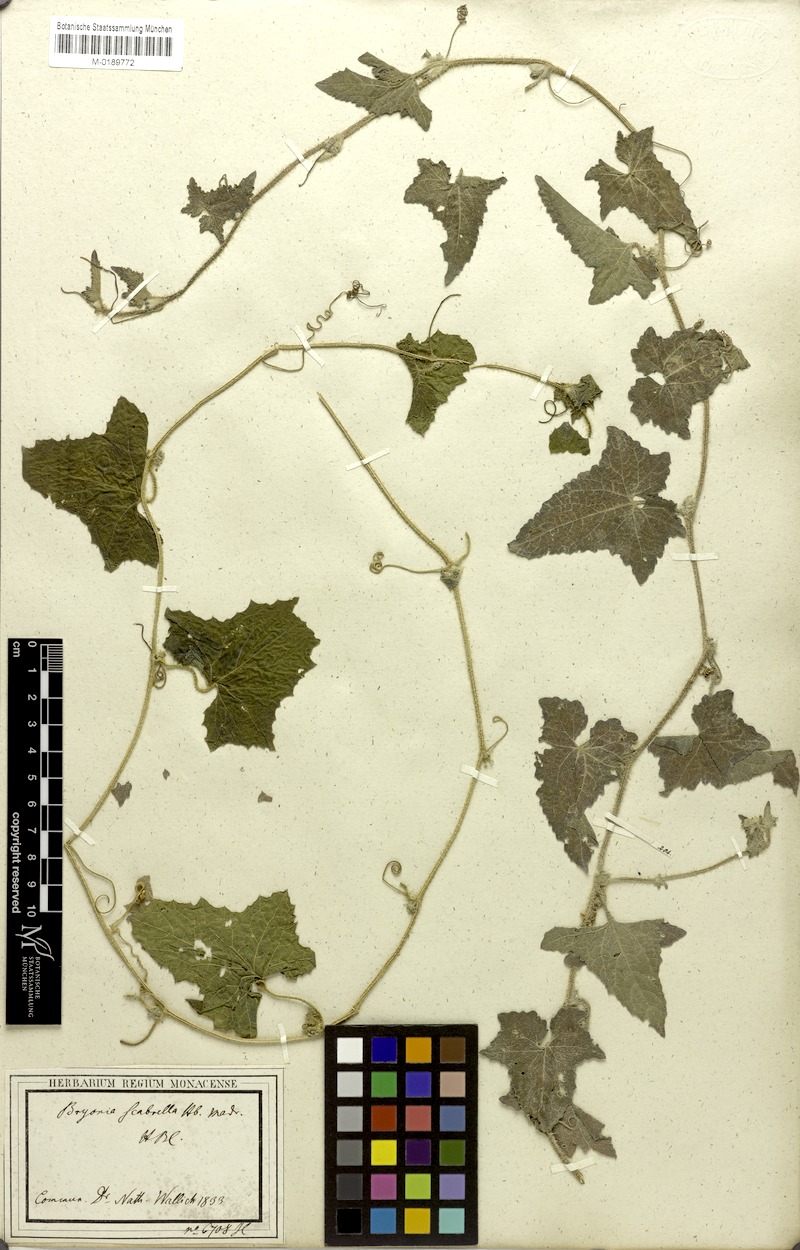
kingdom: Plantae
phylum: Tracheophyta
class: Magnoliopsida
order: Cucurbitales
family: Cucurbitaceae
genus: Cucumis
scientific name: Cucumis maderaspatanus
